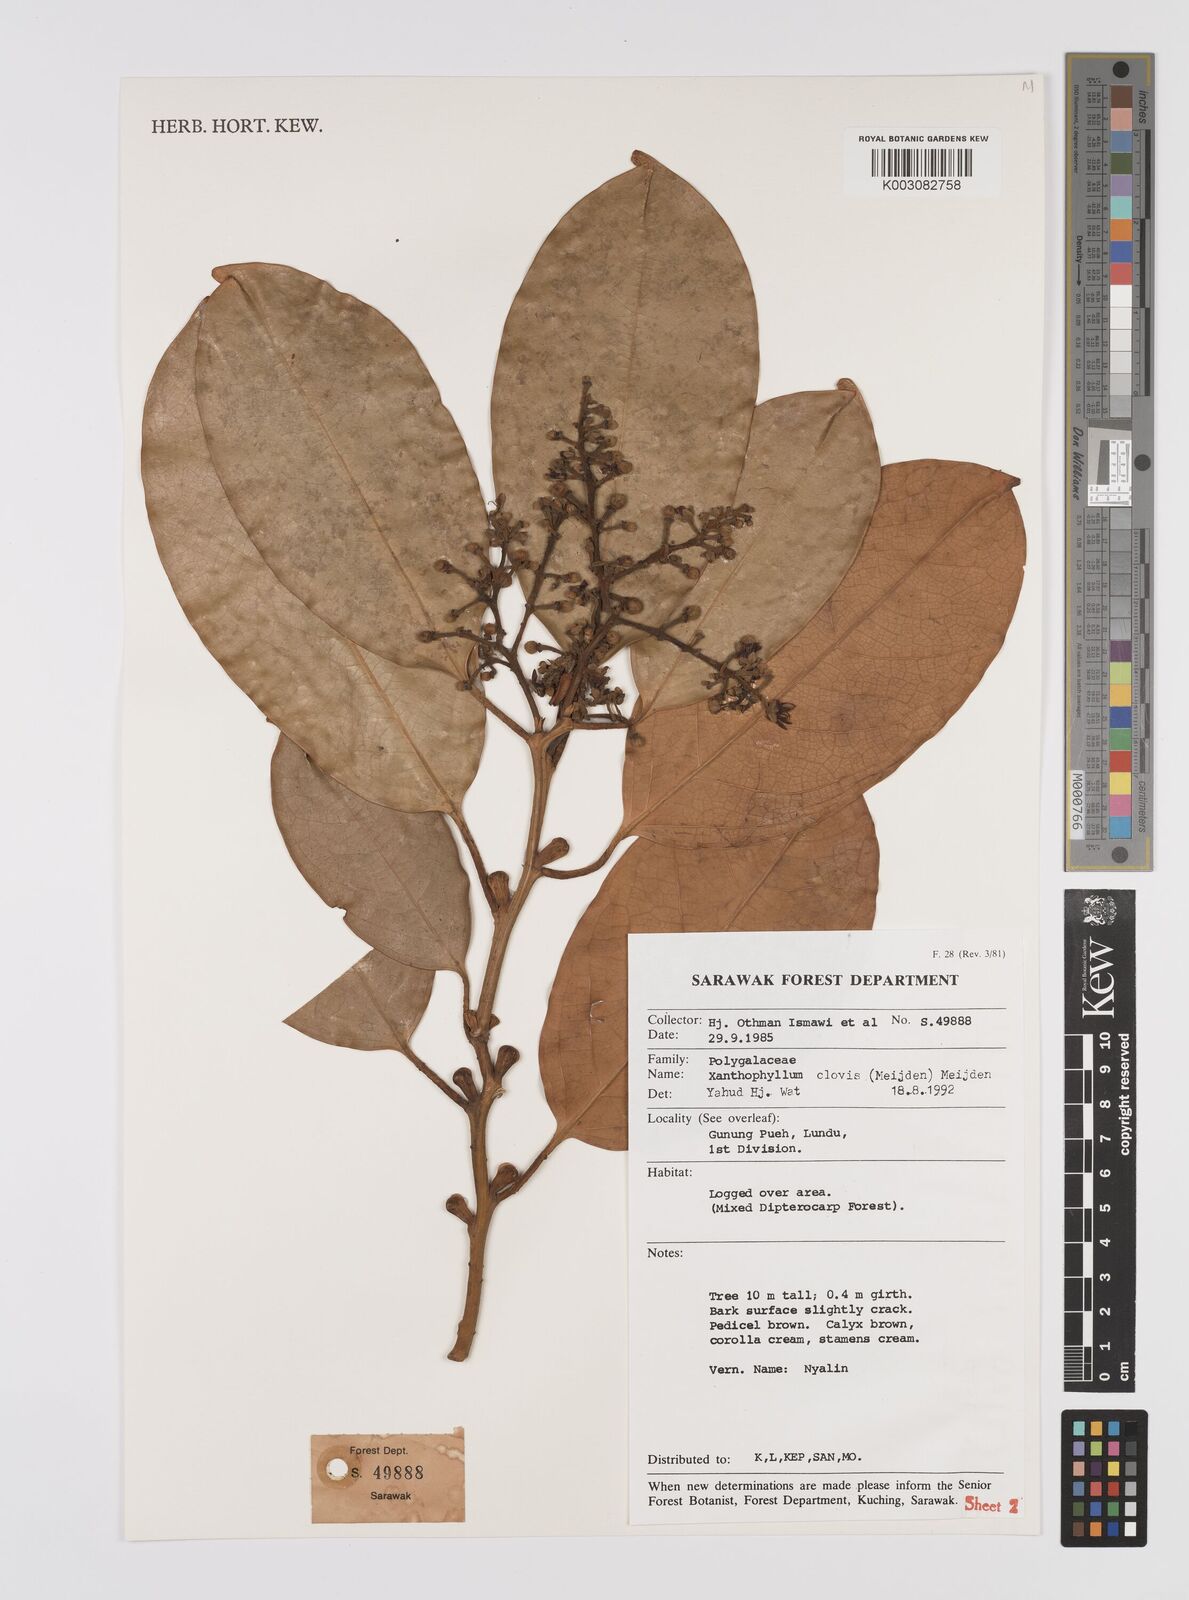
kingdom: Plantae
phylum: Tracheophyta
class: Magnoliopsida
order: Fabales
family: Polygalaceae
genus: Xanthophyllum
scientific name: Xanthophyllum clovis
